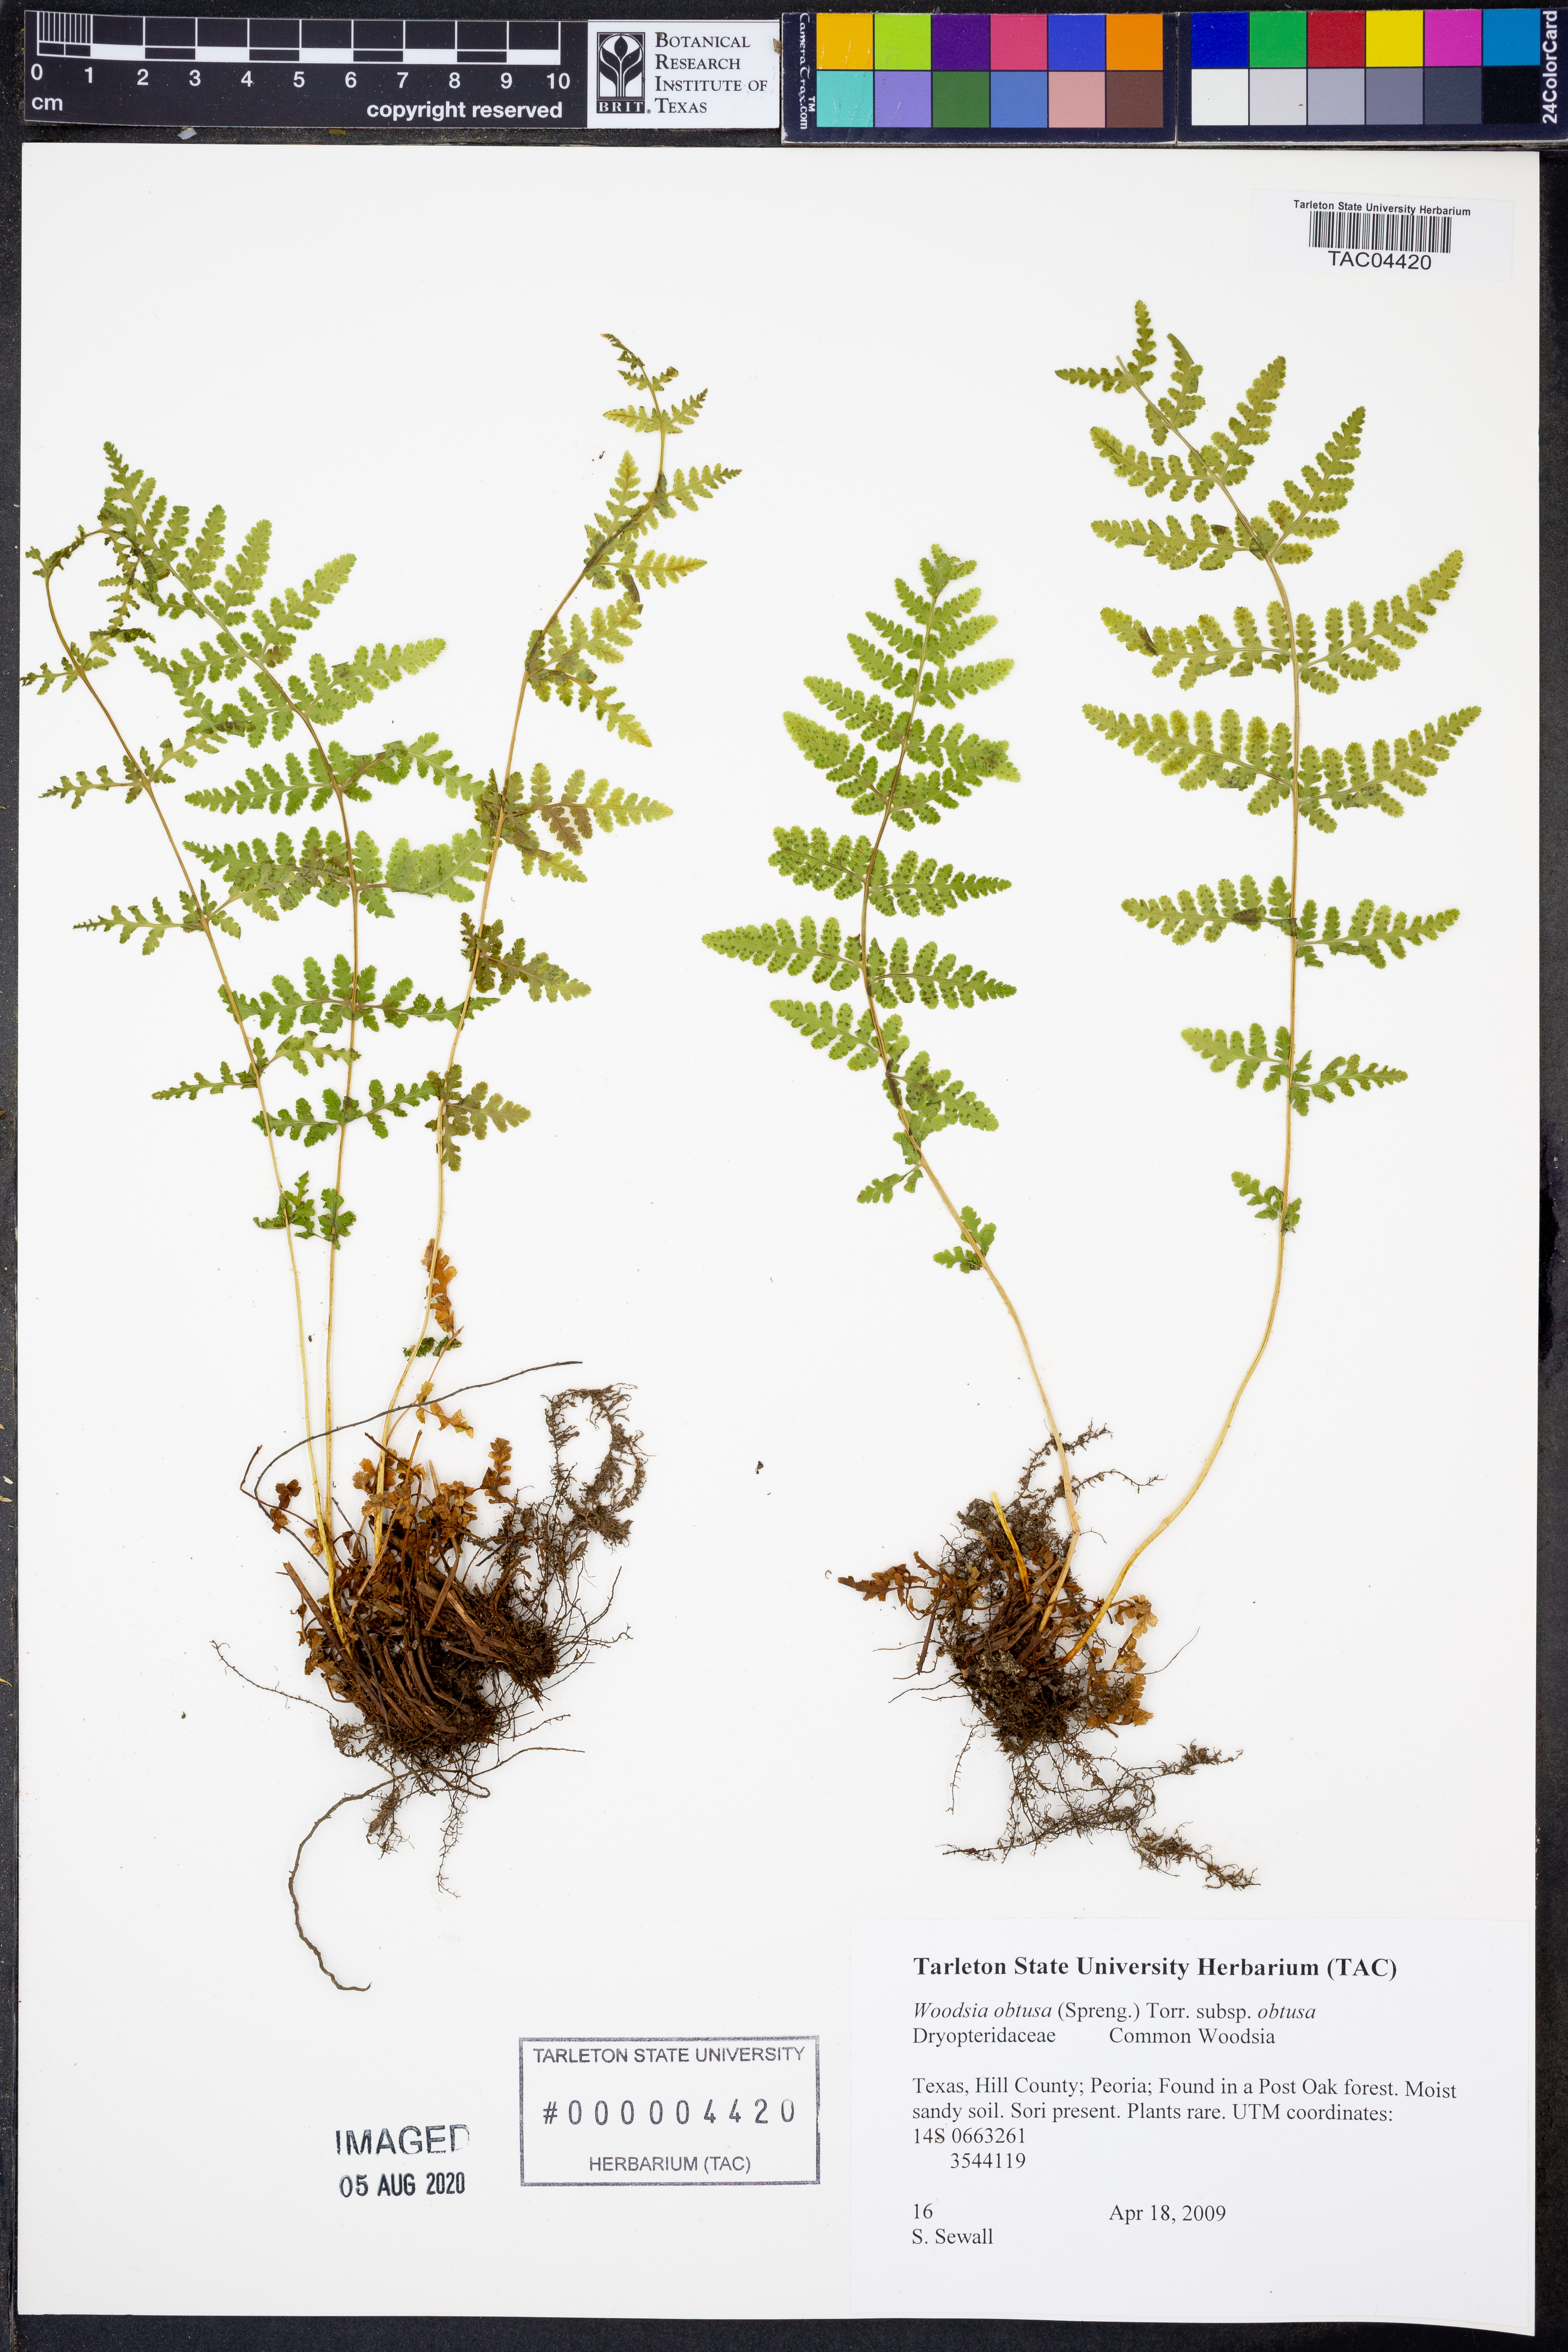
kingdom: Plantae
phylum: Tracheophyta
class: Polypodiopsida
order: Polypodiales
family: Woodsiaceae
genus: Physematium
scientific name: Physematium obtusum
